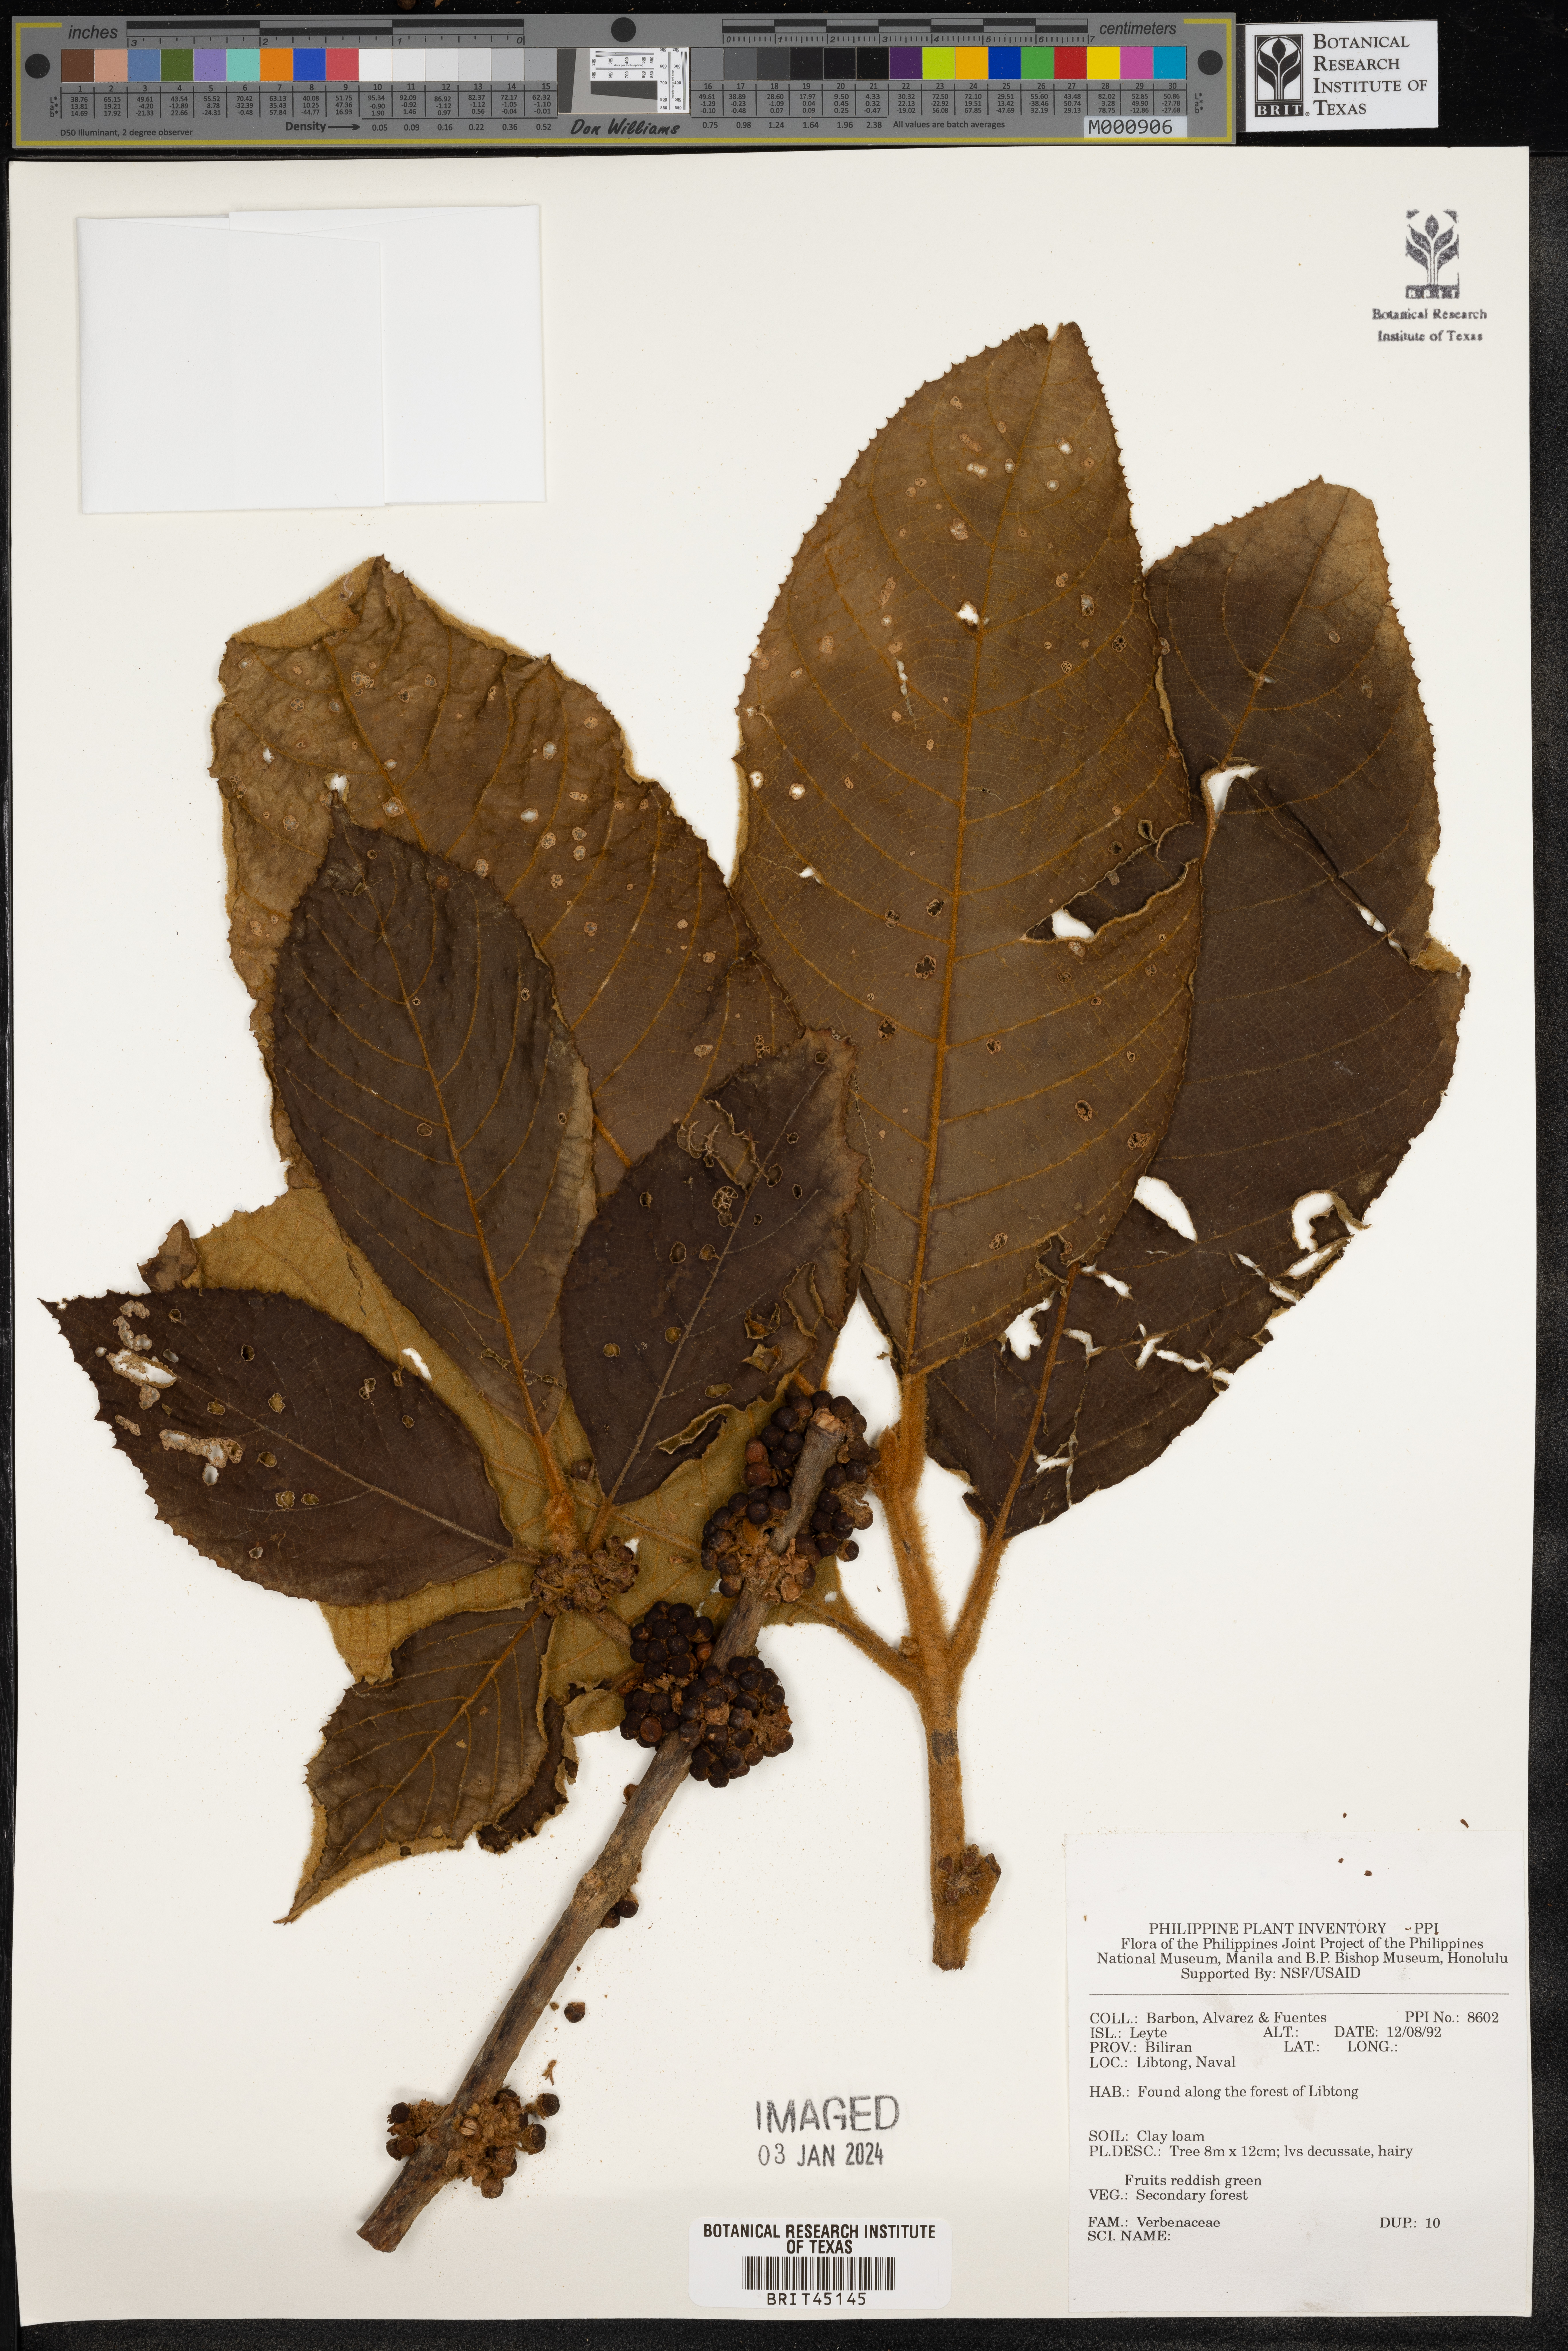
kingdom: Plantae
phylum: Tracheophyta
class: Magnoliopsida
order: Lamiales
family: Verbenaceae
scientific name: Verbenaceae
